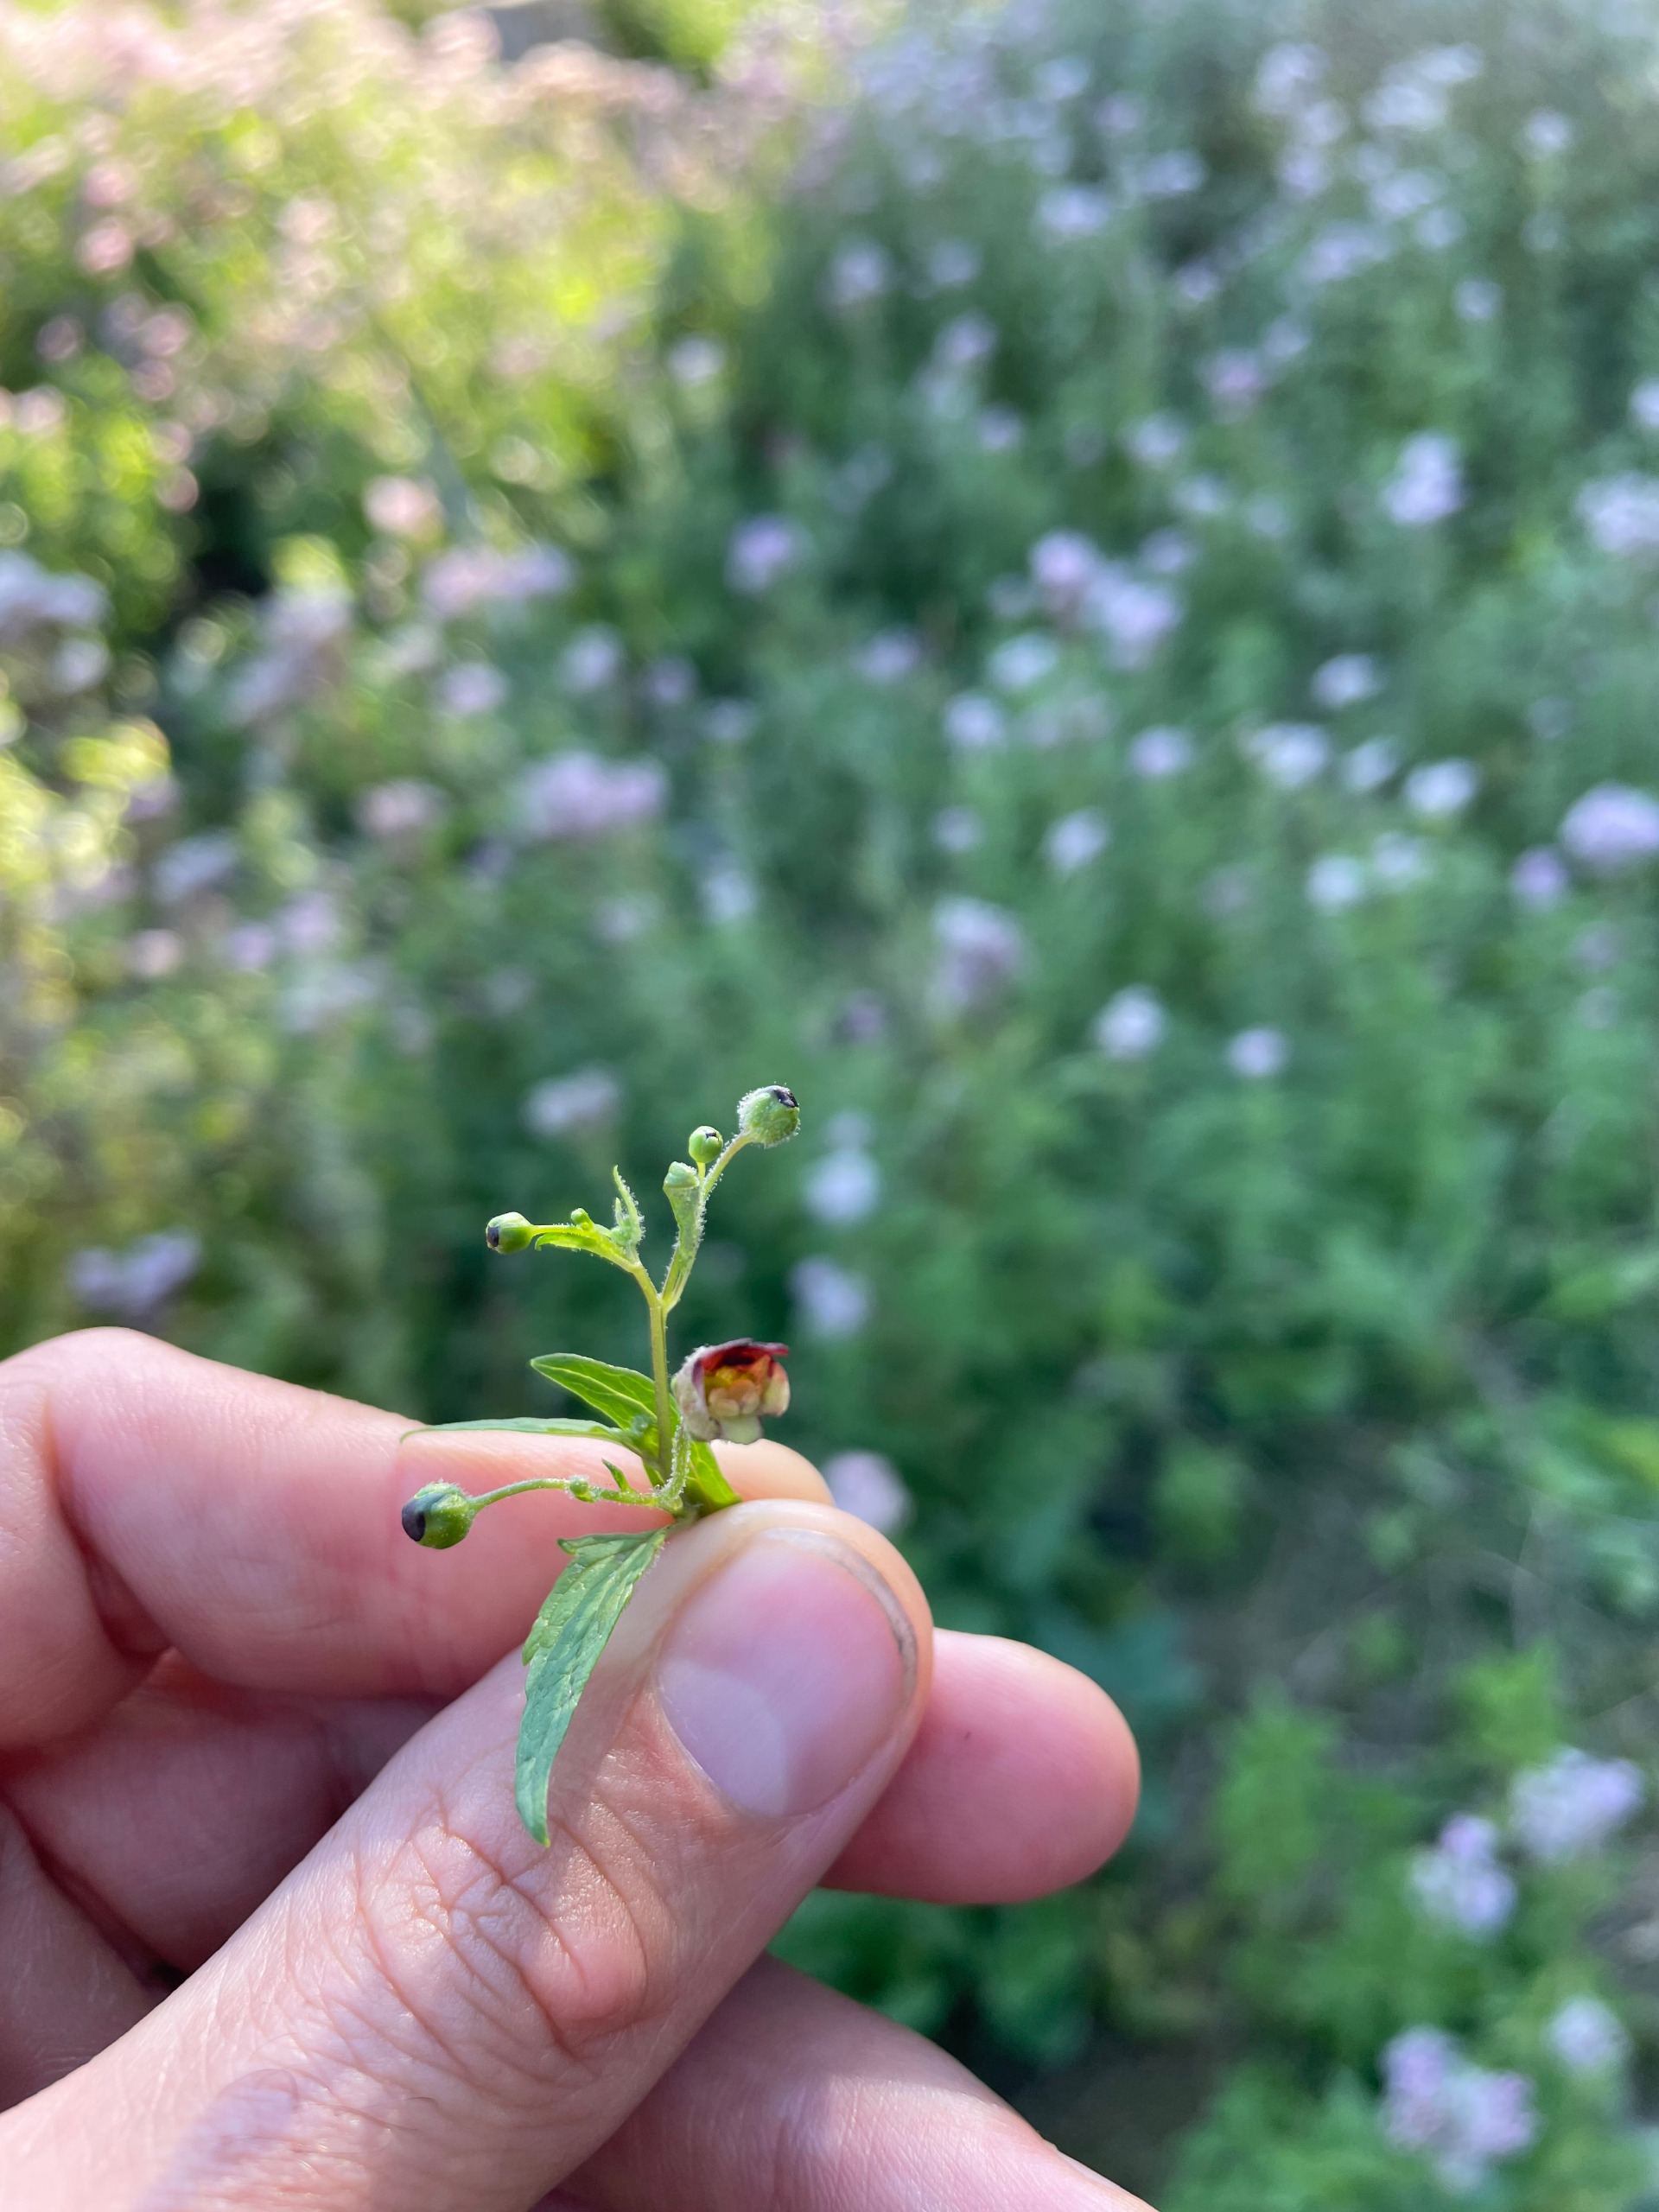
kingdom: Plantae
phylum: Tracheophyta
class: Magnoliopsida
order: Lamiales
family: Scrophulariaceae
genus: Scrophularia
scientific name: Scrophularia nodosa
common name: Knoldet brunrod
